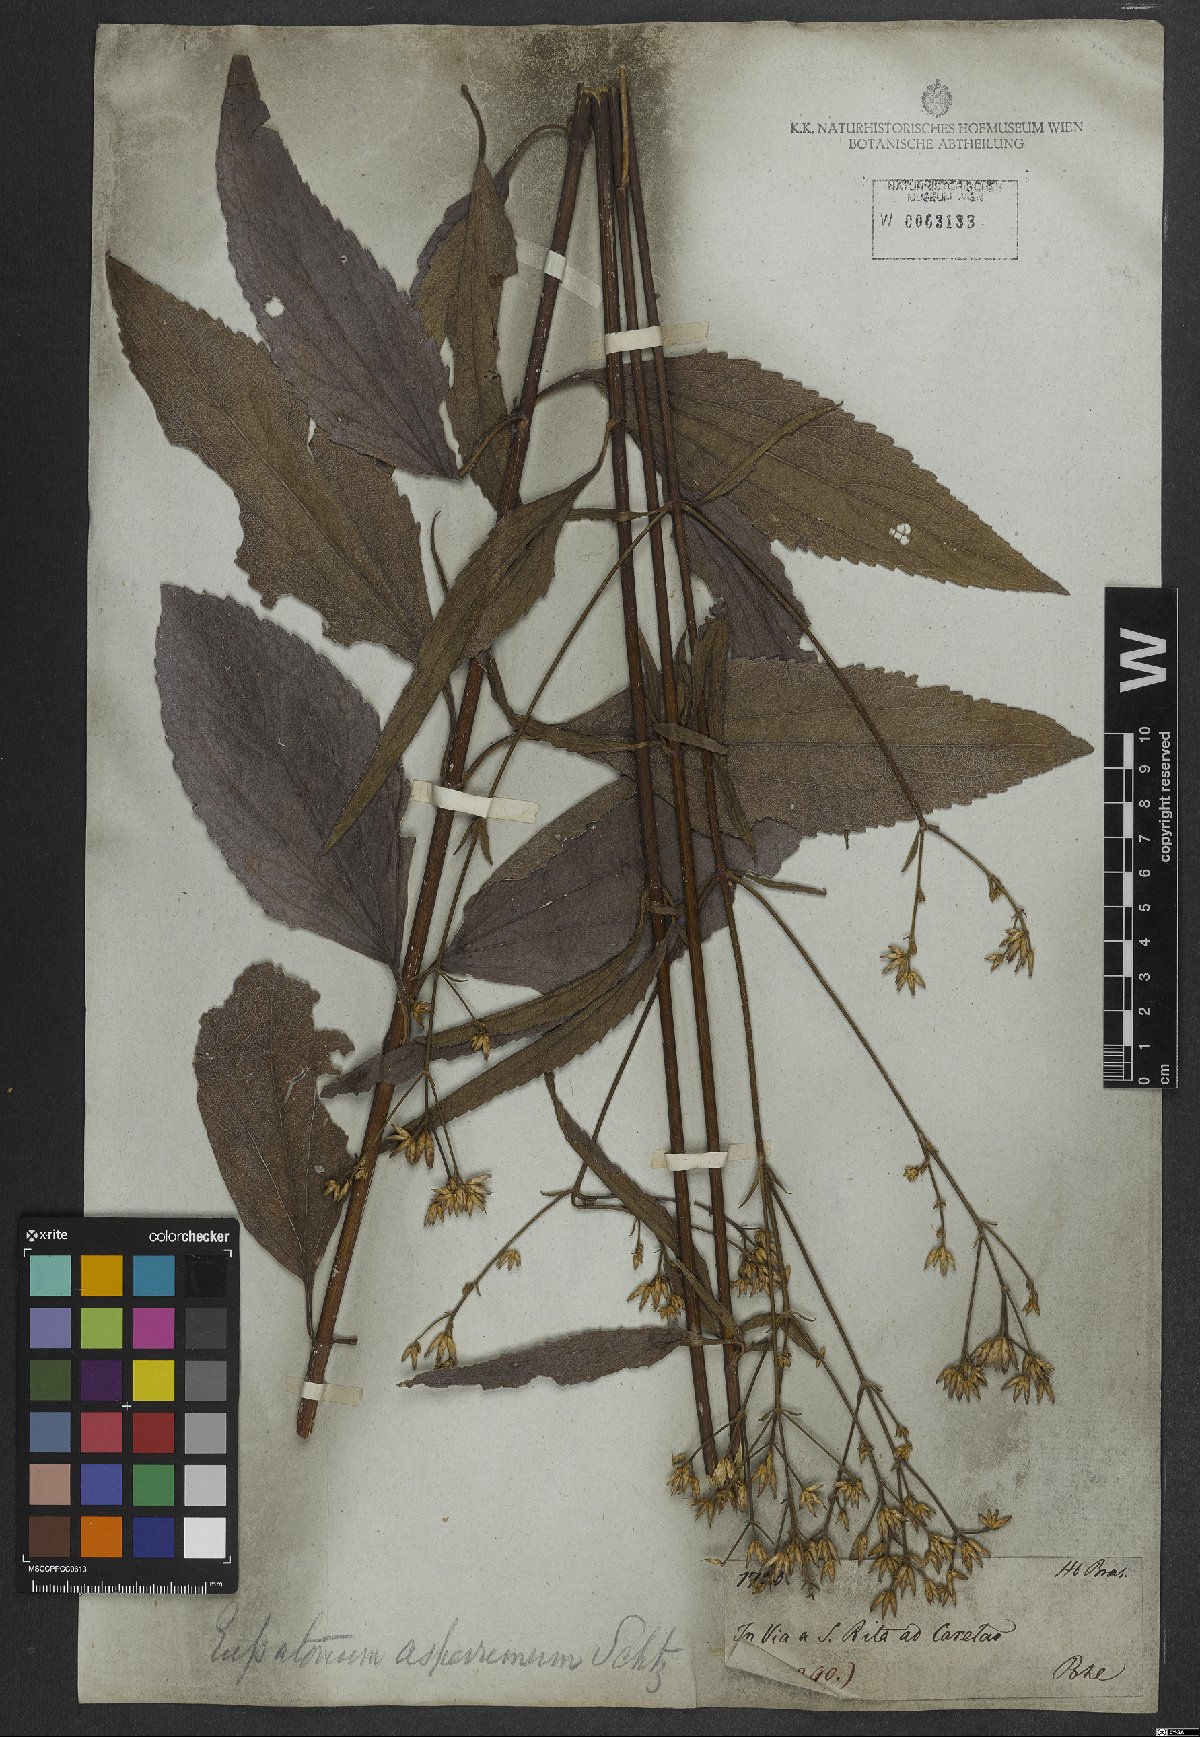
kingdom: Plantae
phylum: Tracheophyta
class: Magnoliopsida
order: Asterales
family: Asteraceae
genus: Chromolaena
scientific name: Chromolaena asperrima
